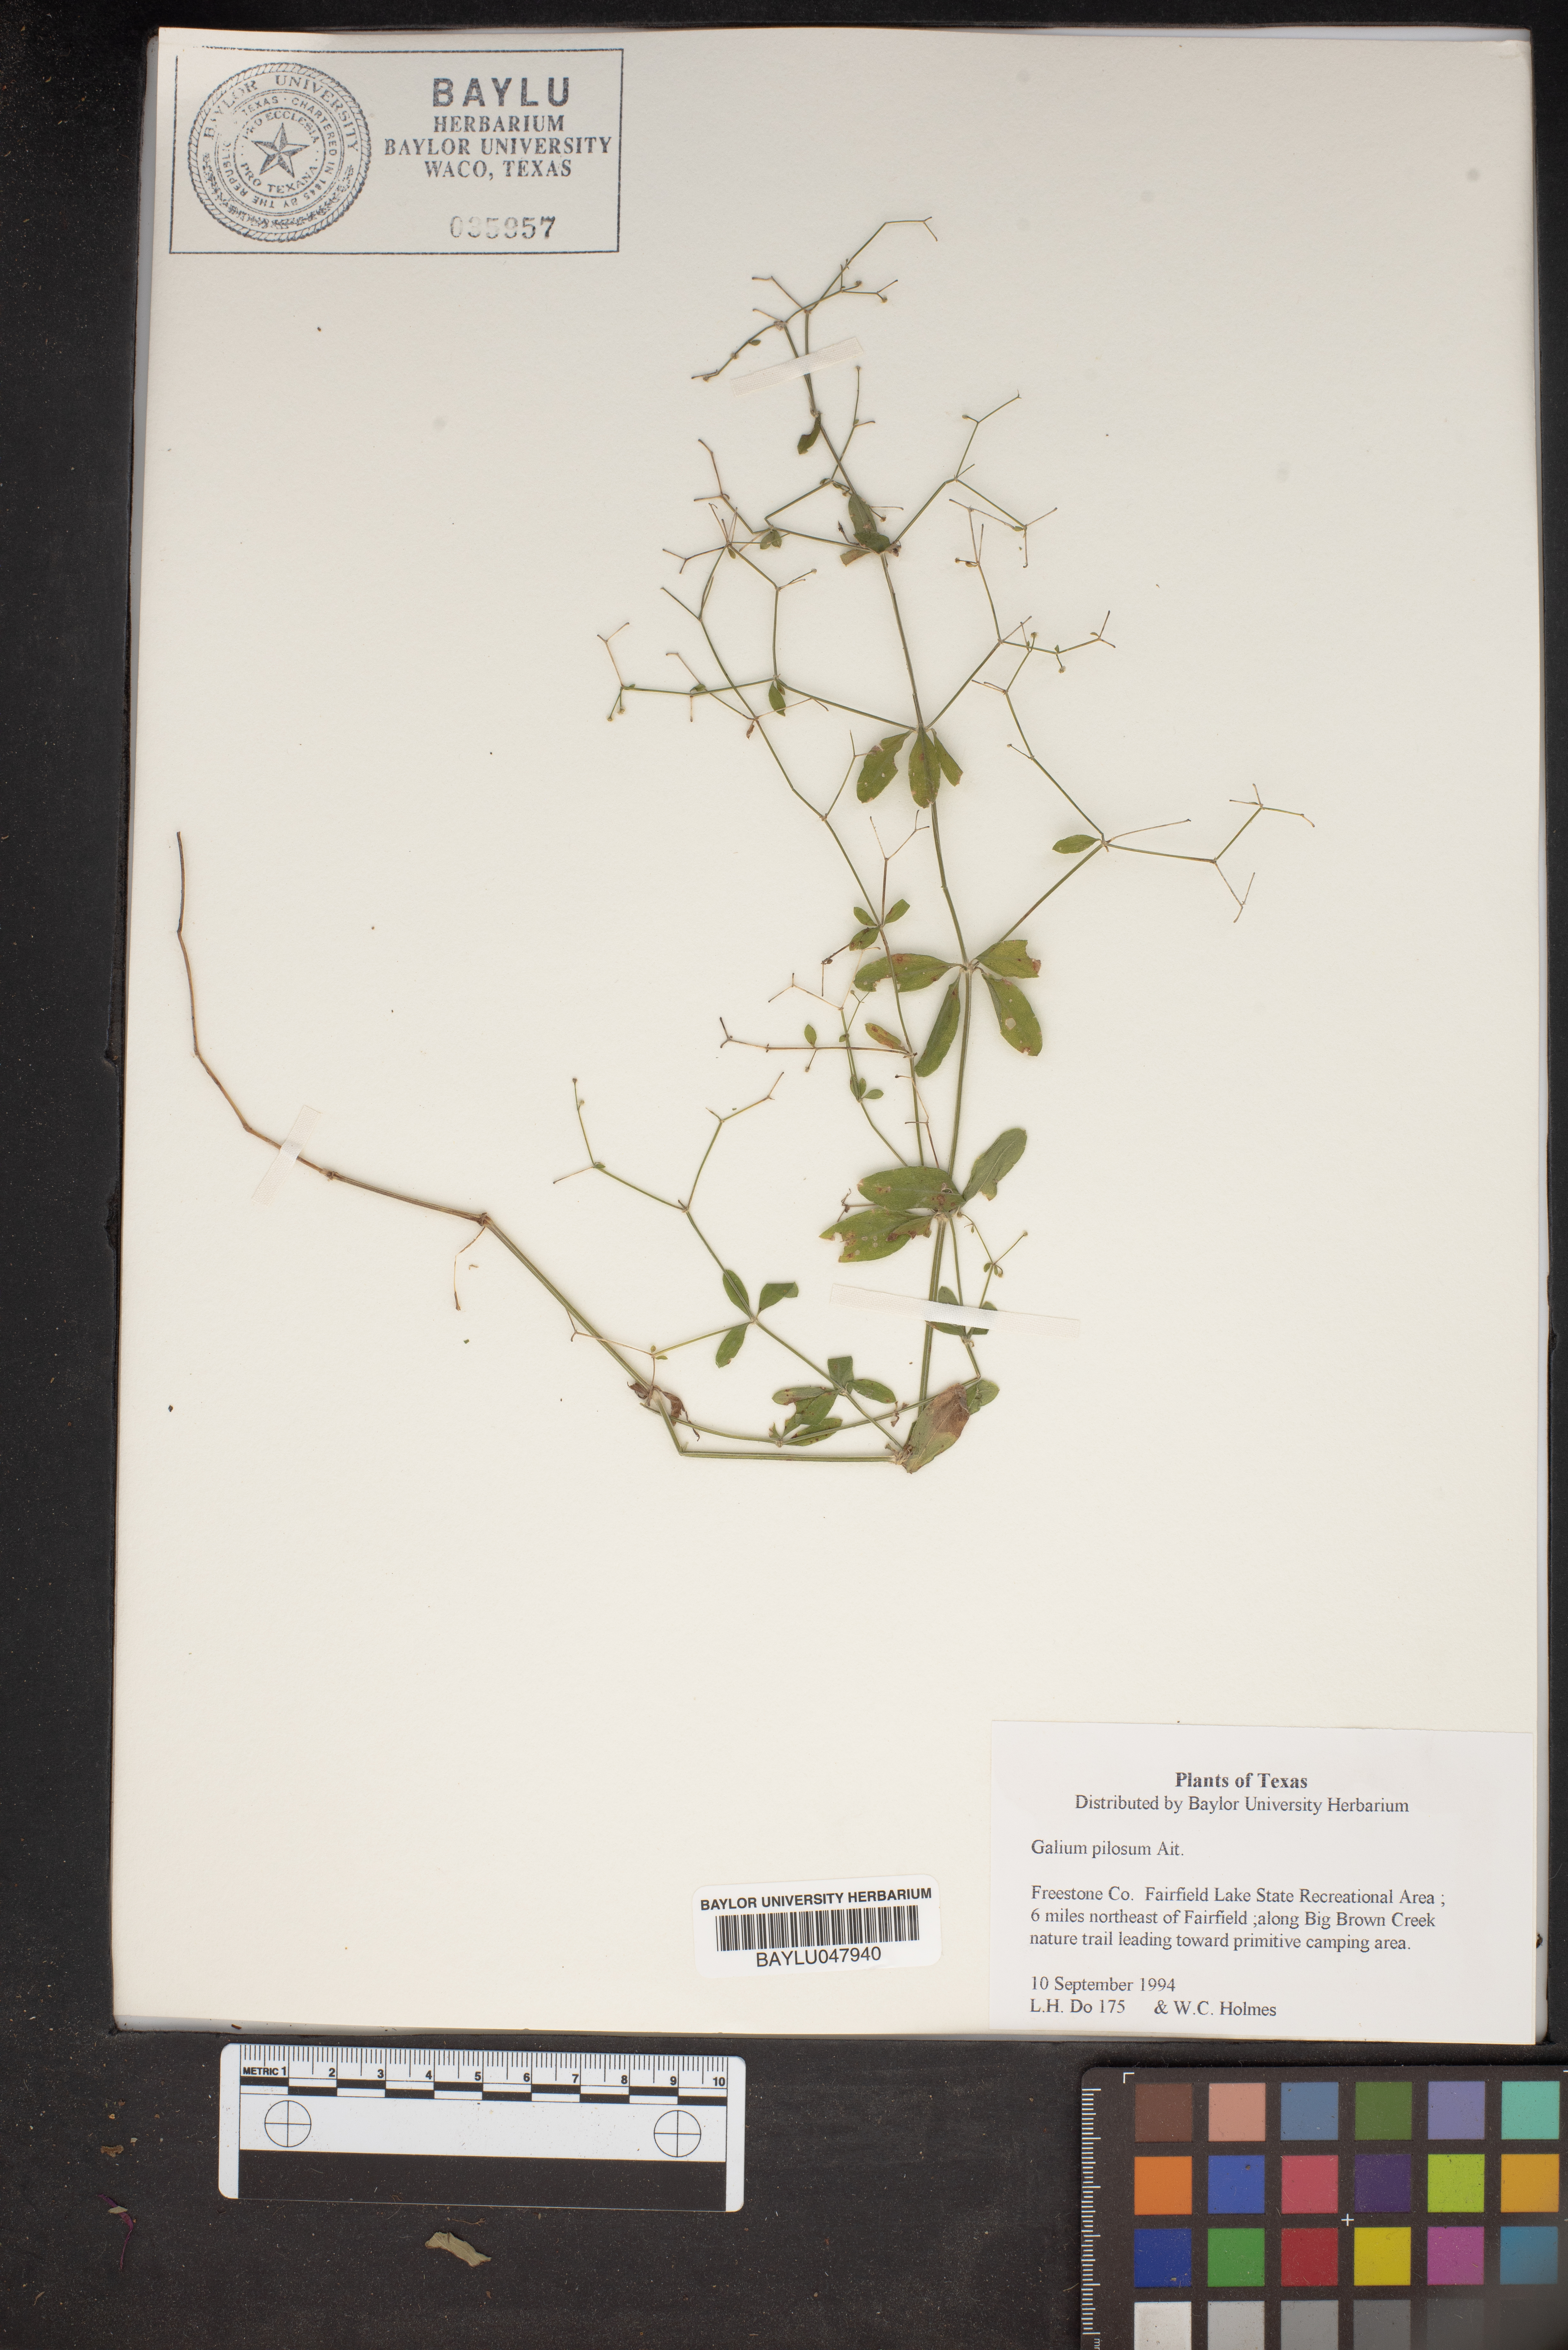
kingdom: Plantae
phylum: Tracheophyta
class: Magnoliopsida
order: Gentianales
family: Rubiaceae
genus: Galium
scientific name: Galium pilosum
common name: Hairy bedstraw
